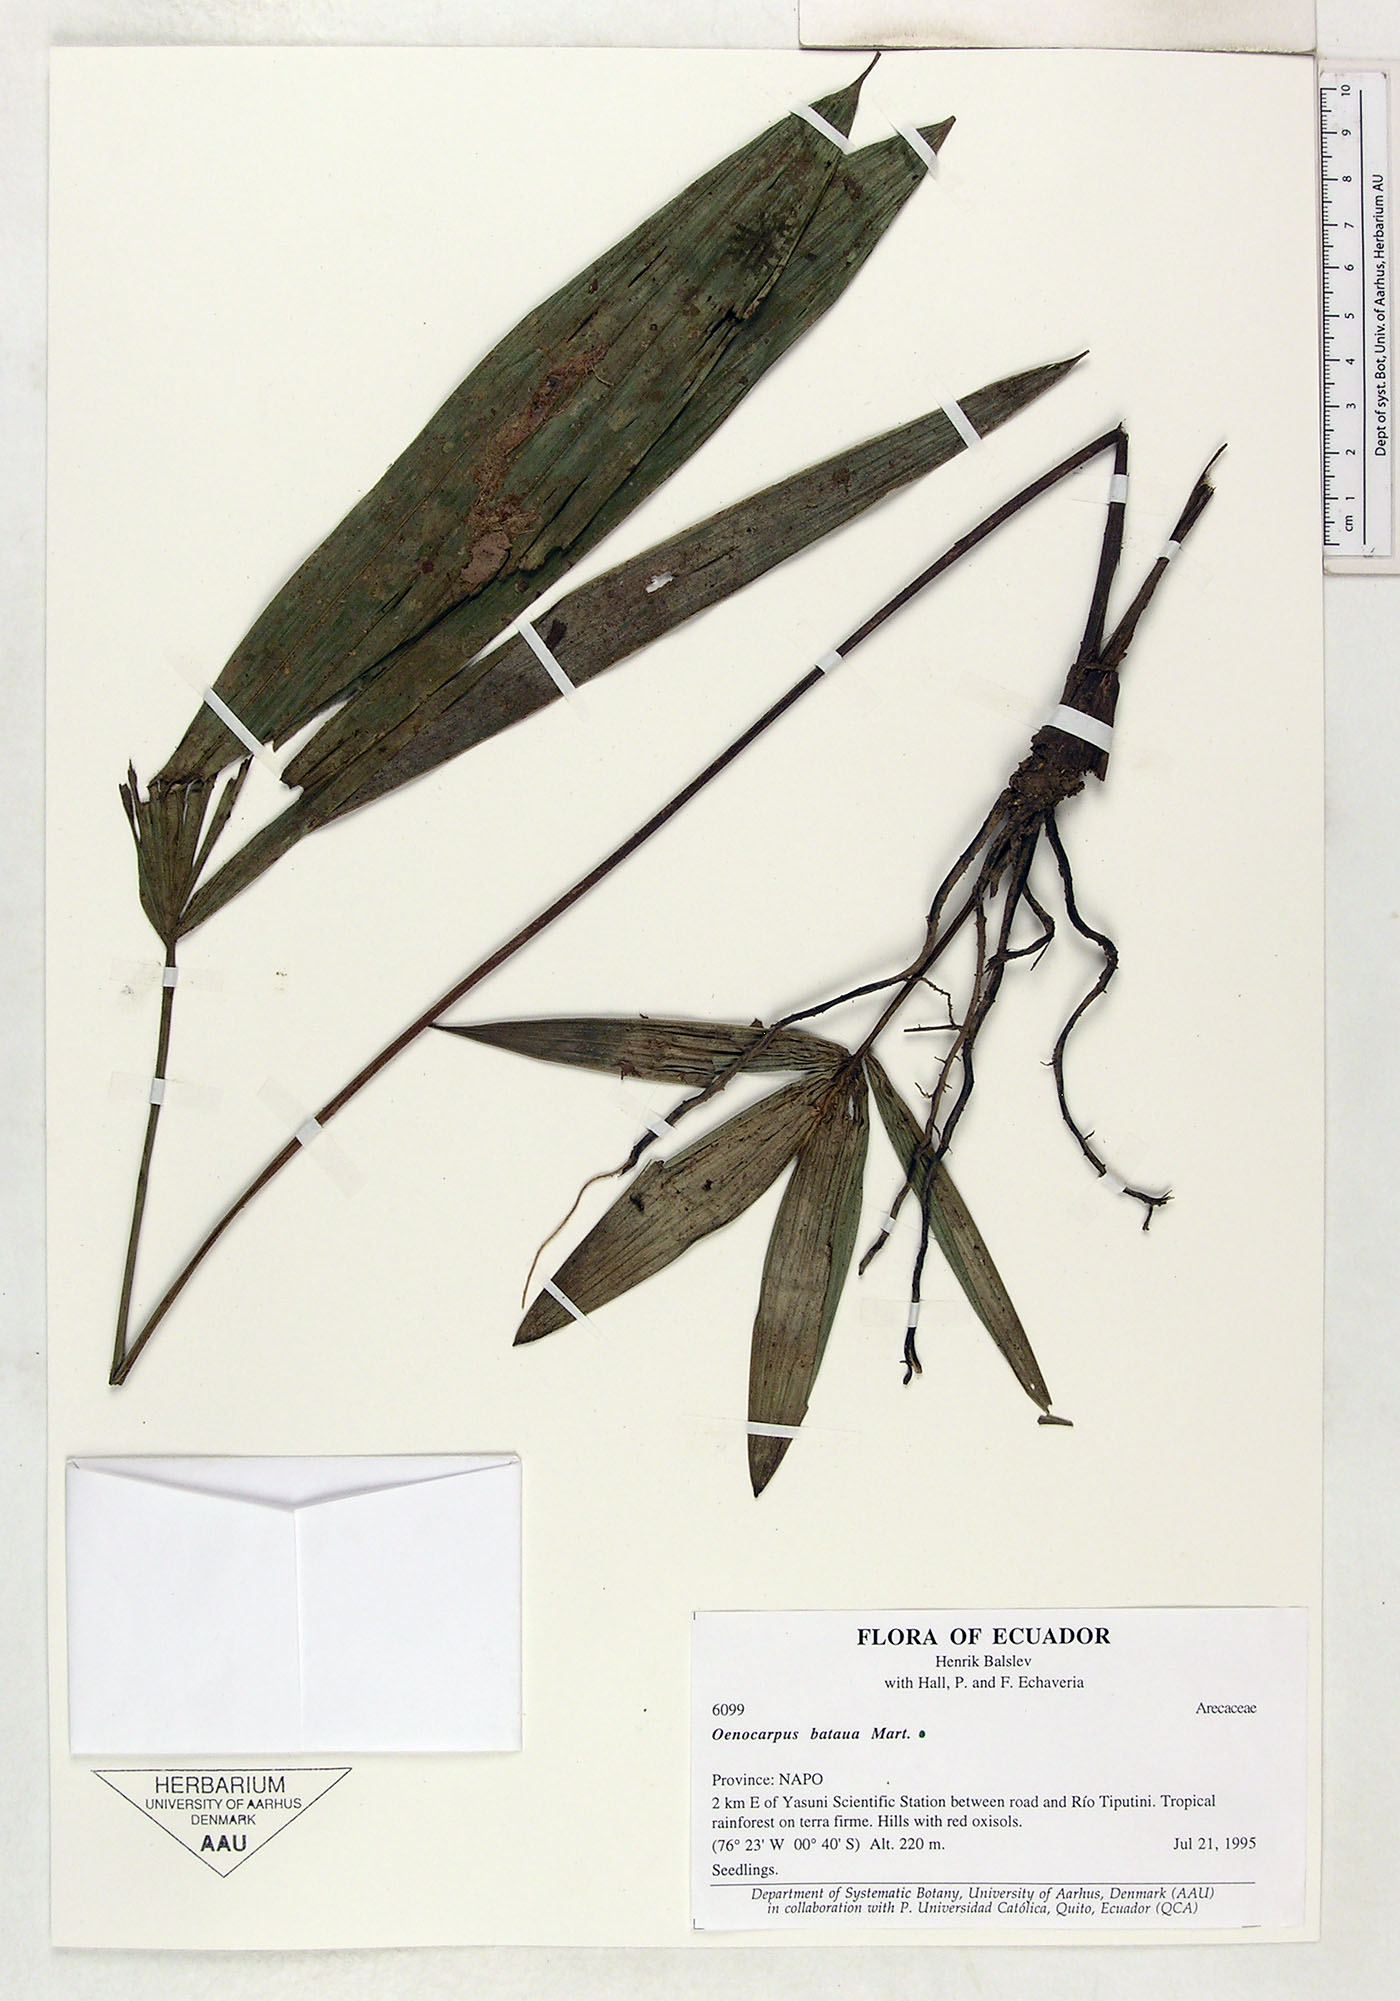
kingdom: Plantae
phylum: Tracheophyta
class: Liliopsida
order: Arecales
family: Arecaceae
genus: Oenocarpus
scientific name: Oenocarpus bataua
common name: Bataua palm
